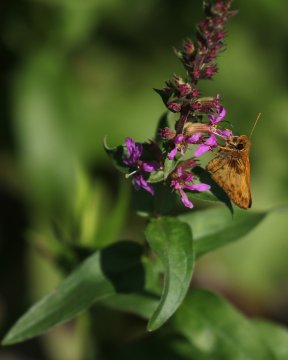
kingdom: Animalia
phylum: Arthropoda
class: Insecta
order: Lepidoptera
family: Hesperiidae
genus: Lon
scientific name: Lon zabulon
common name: Zabulon Skipper
